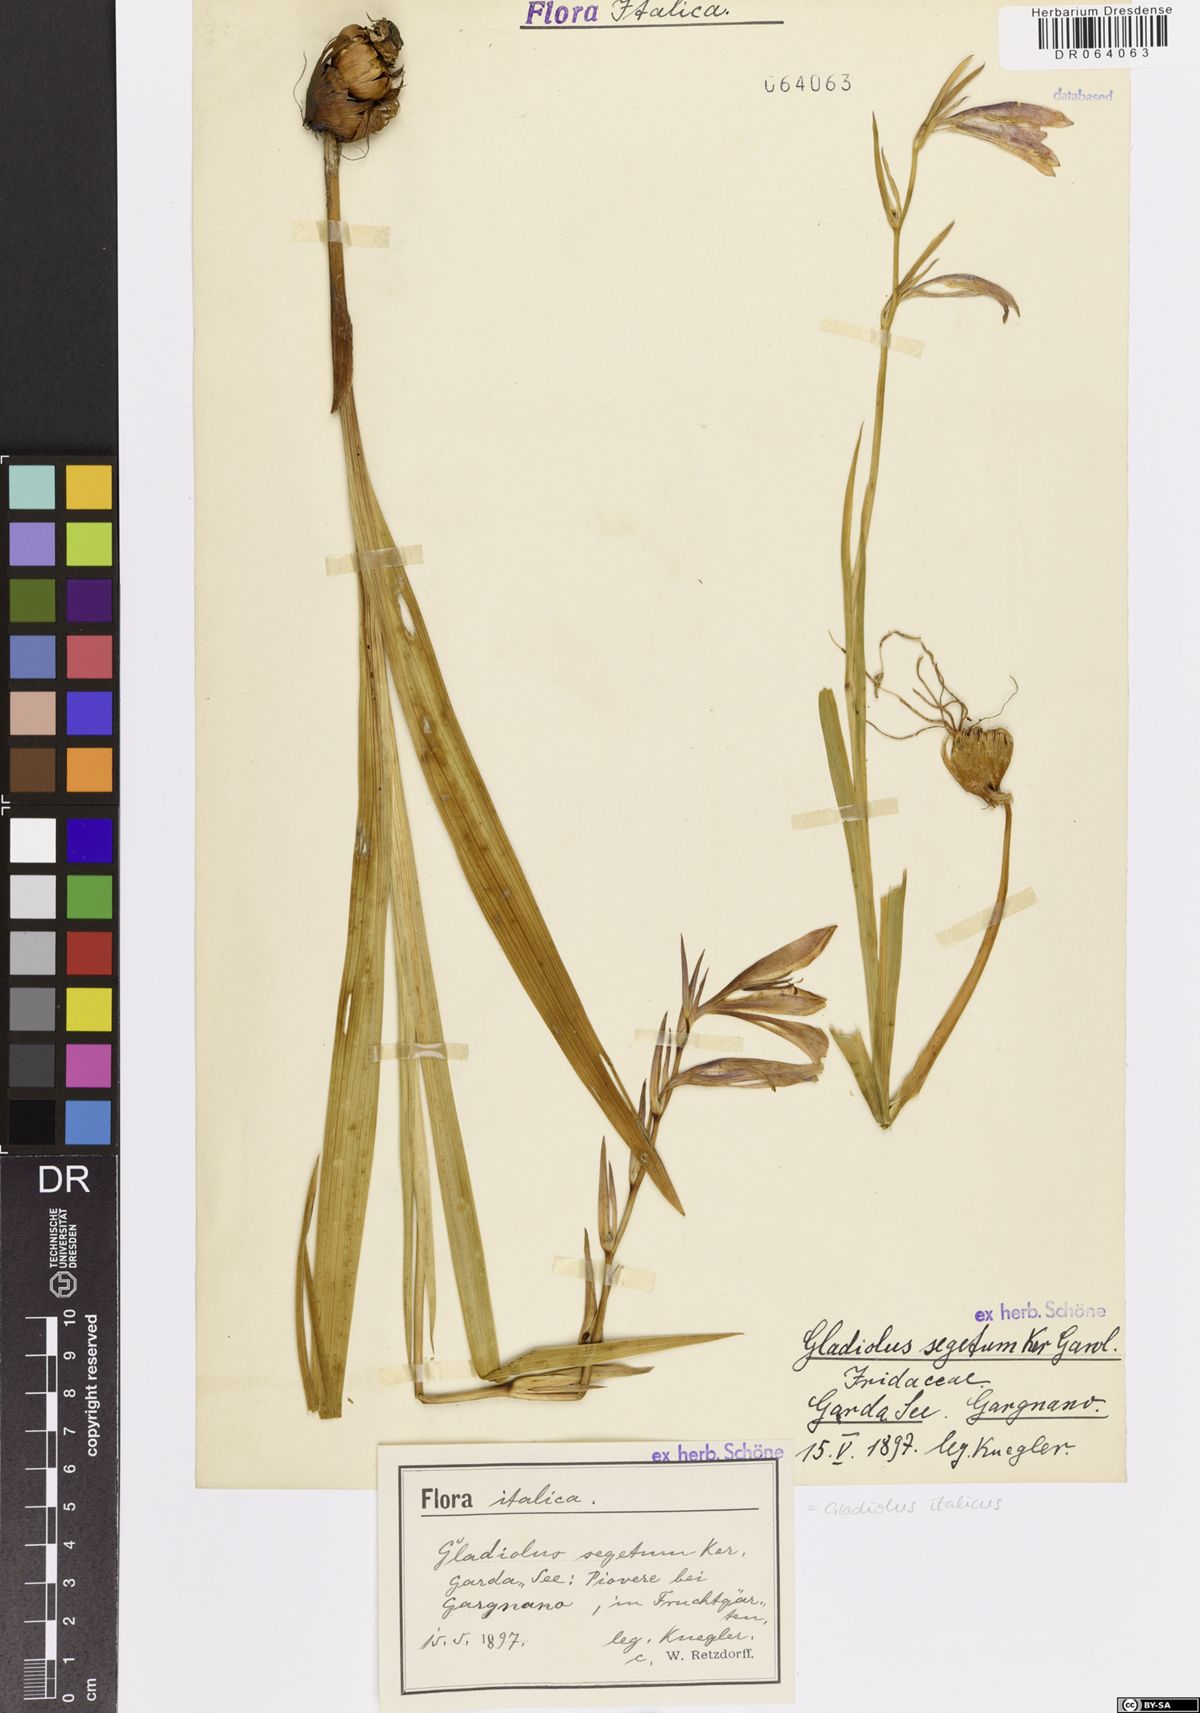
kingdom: Plantae
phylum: Tracheophyta
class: Liliopsida
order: Asparagales
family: Iridaceae
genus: Gladiolus
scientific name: Gladiolus italicus
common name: Field gladiolus
